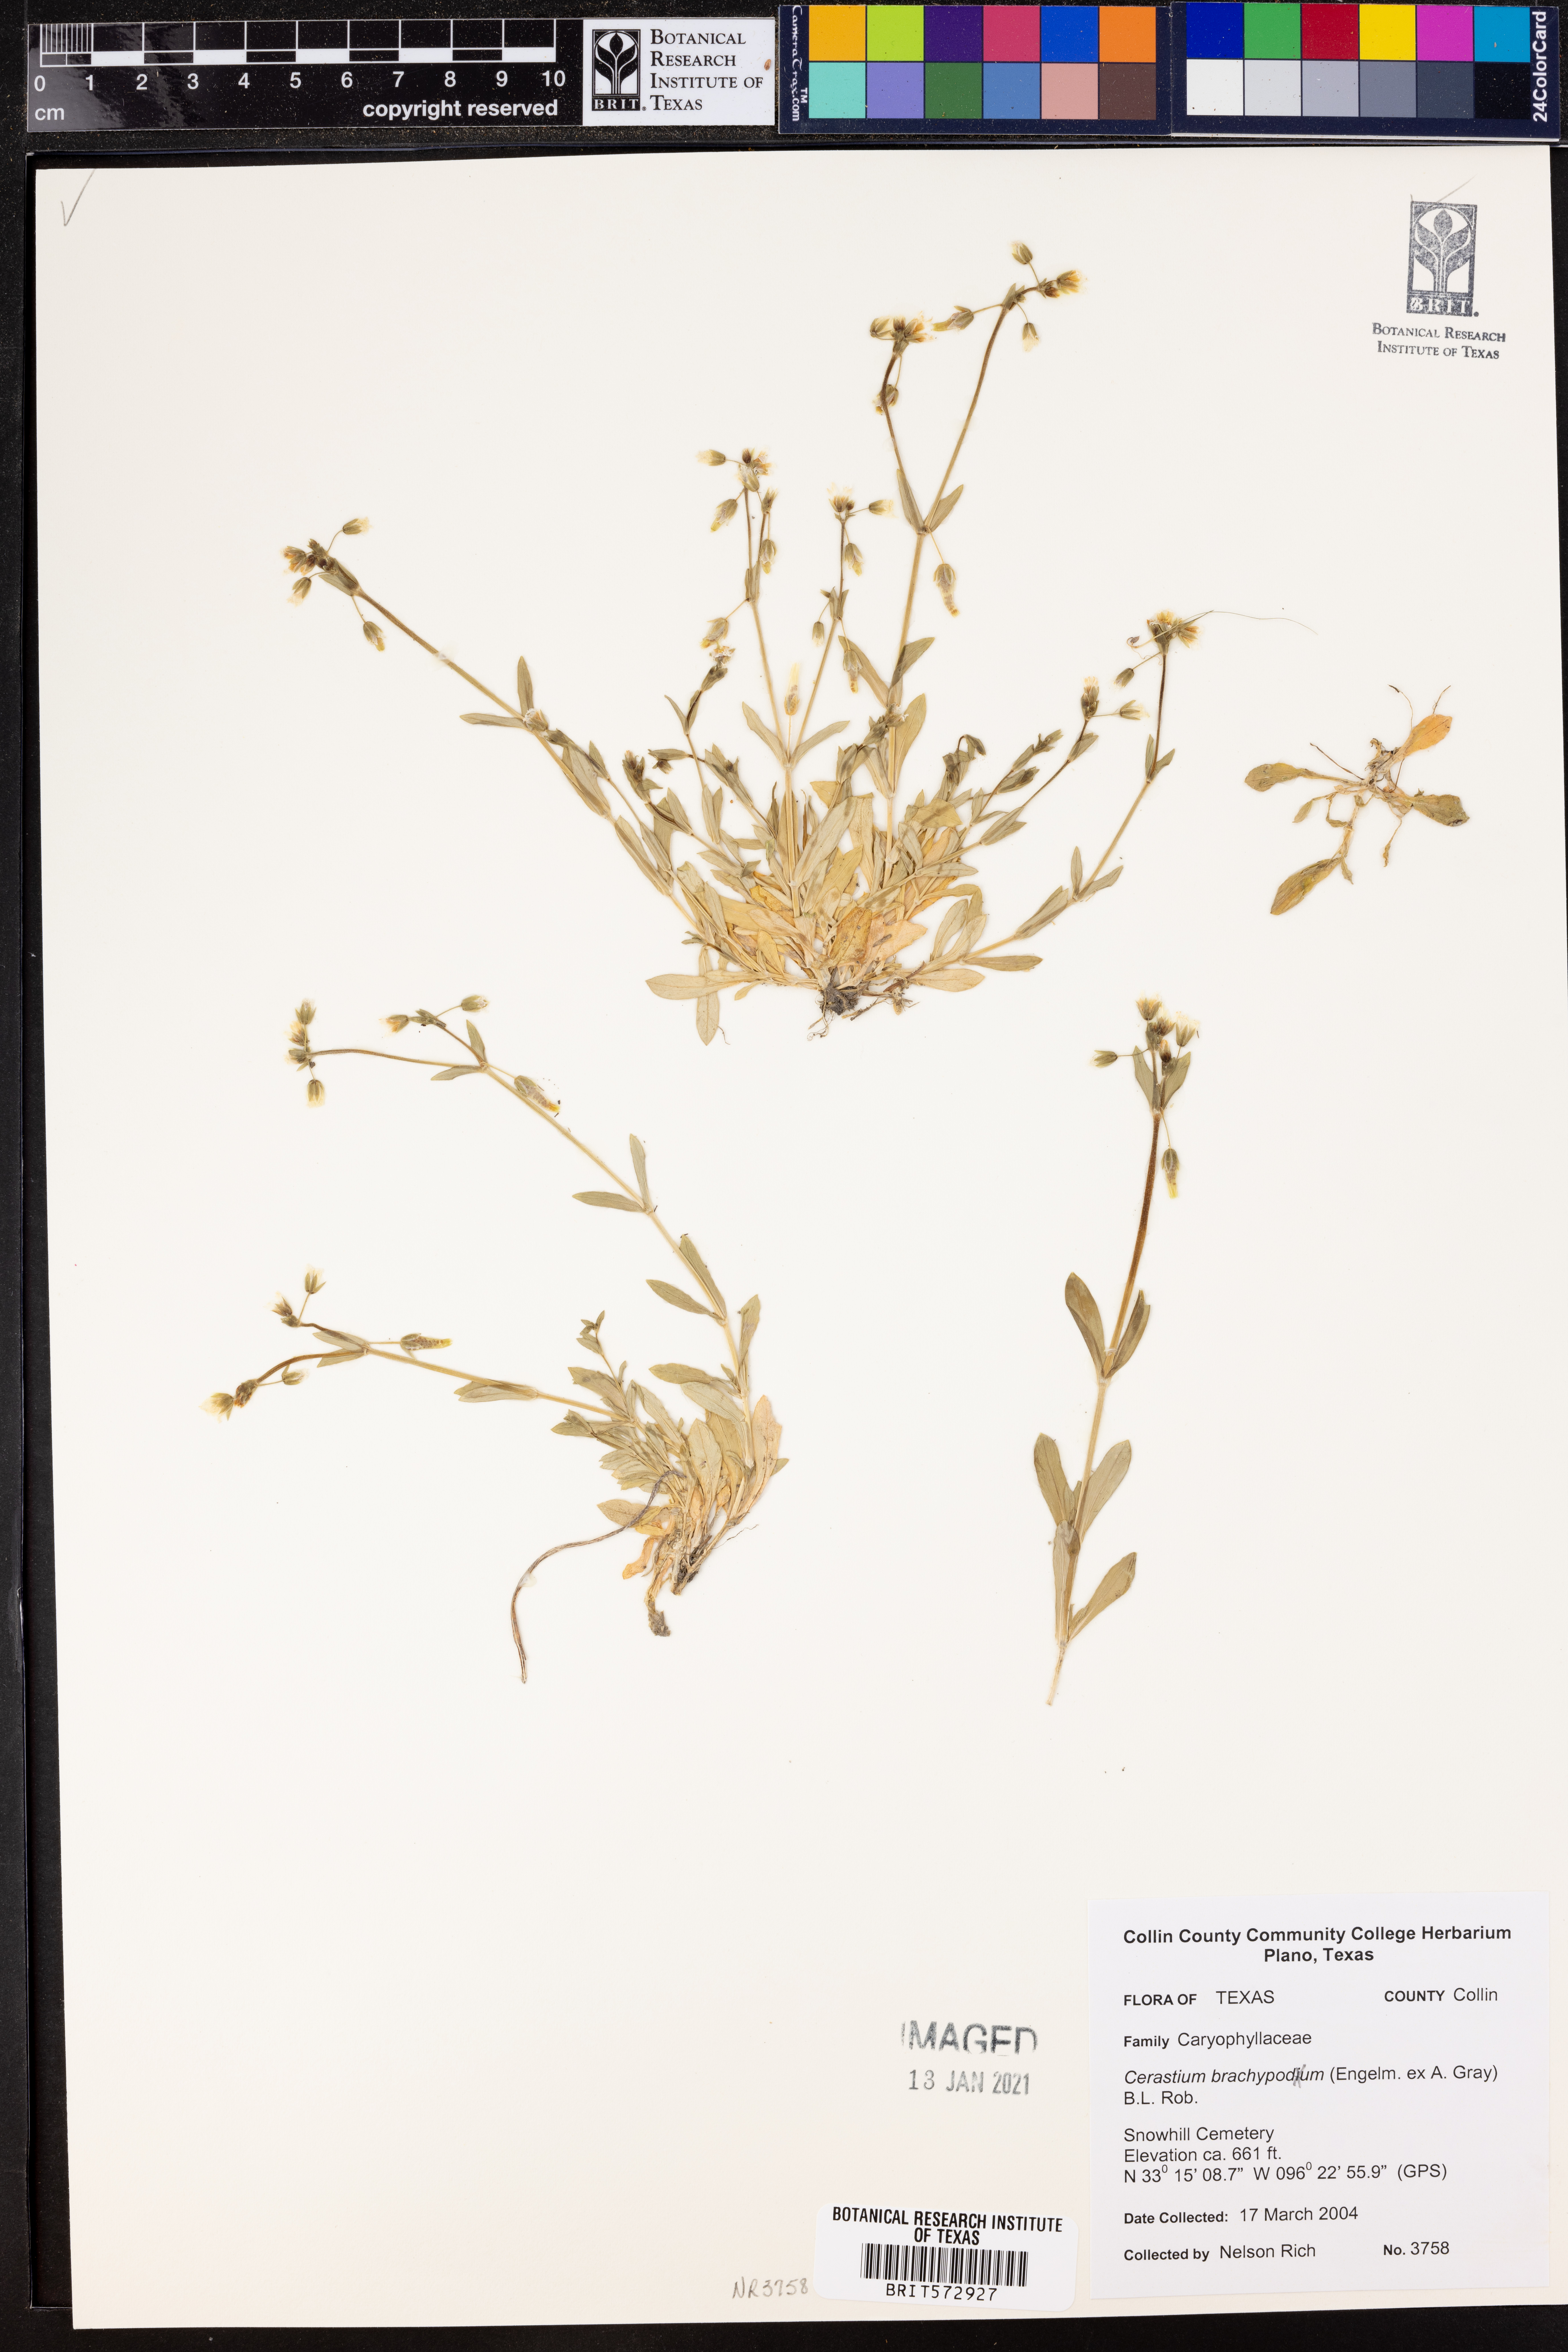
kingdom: Plantae
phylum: Tracheophyta
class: Magnoliopsida
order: Caryophyllales
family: Caryophyllaceae
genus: Cerastium
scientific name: Cerastium brachypetalum
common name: Grey mouse-ear
